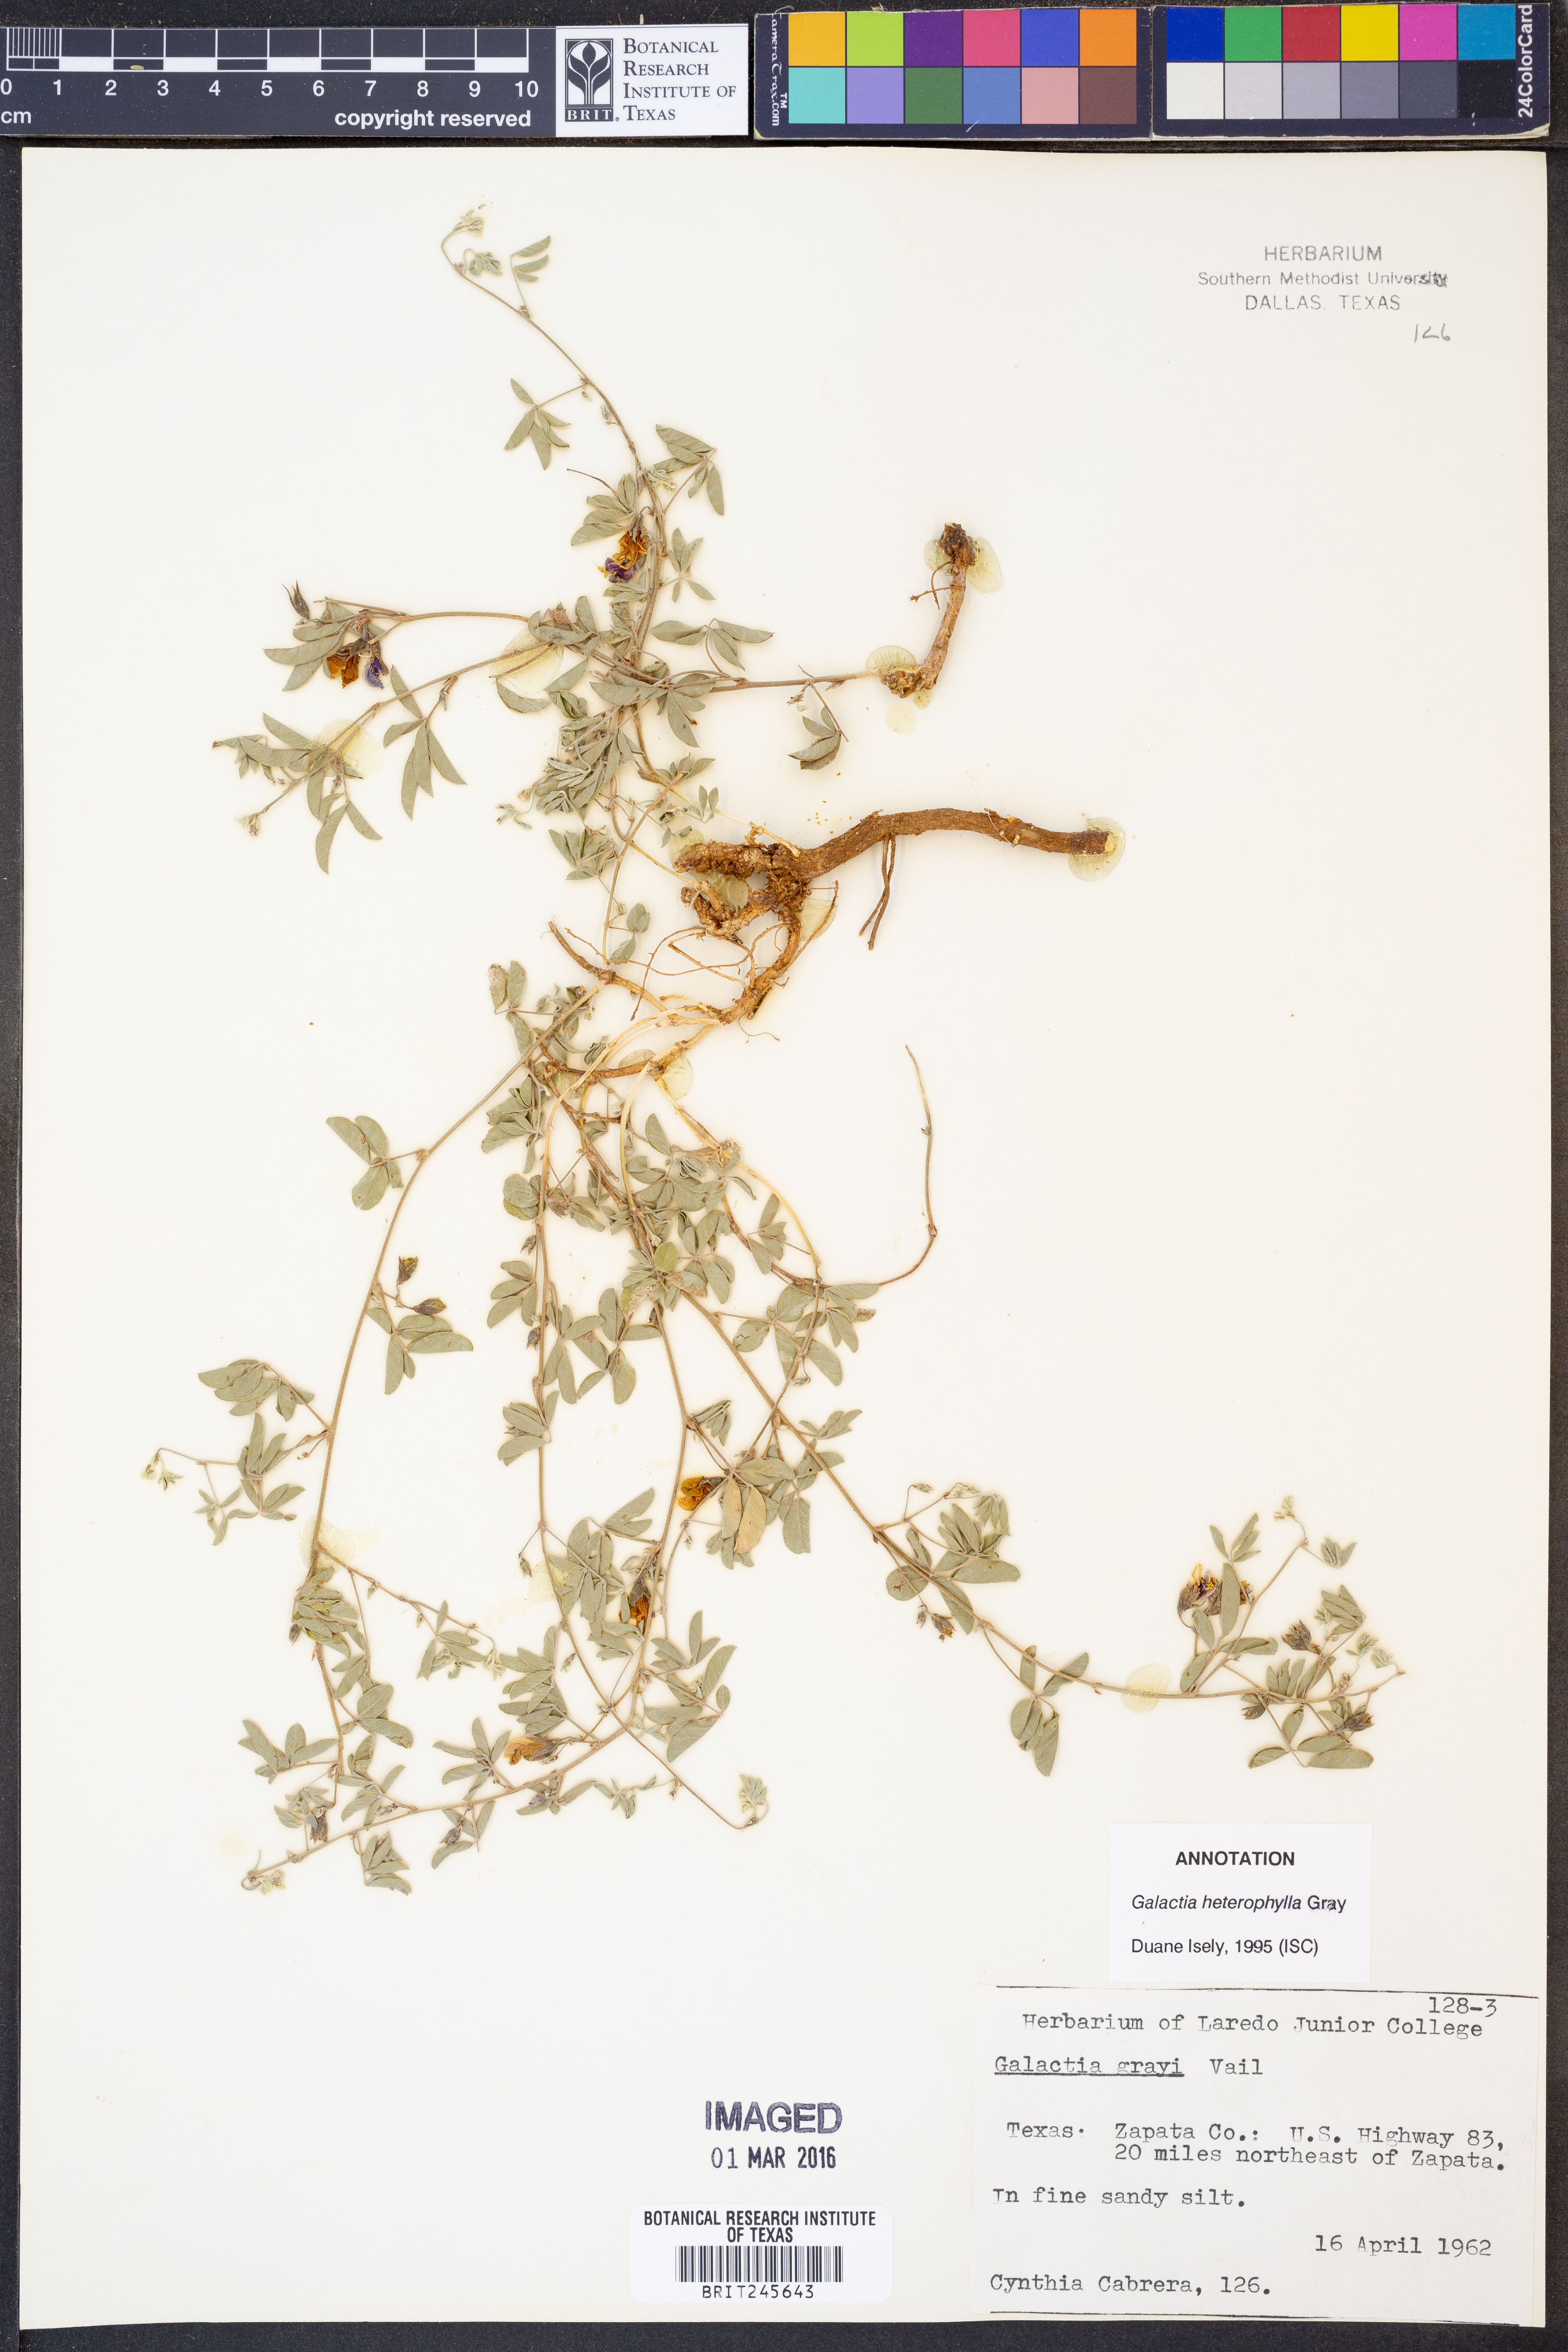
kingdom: Plantae
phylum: Tracheophyta
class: Magnoliopsida
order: Fabales
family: Fabaceae
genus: Galactia
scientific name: Galactia heterophylla
